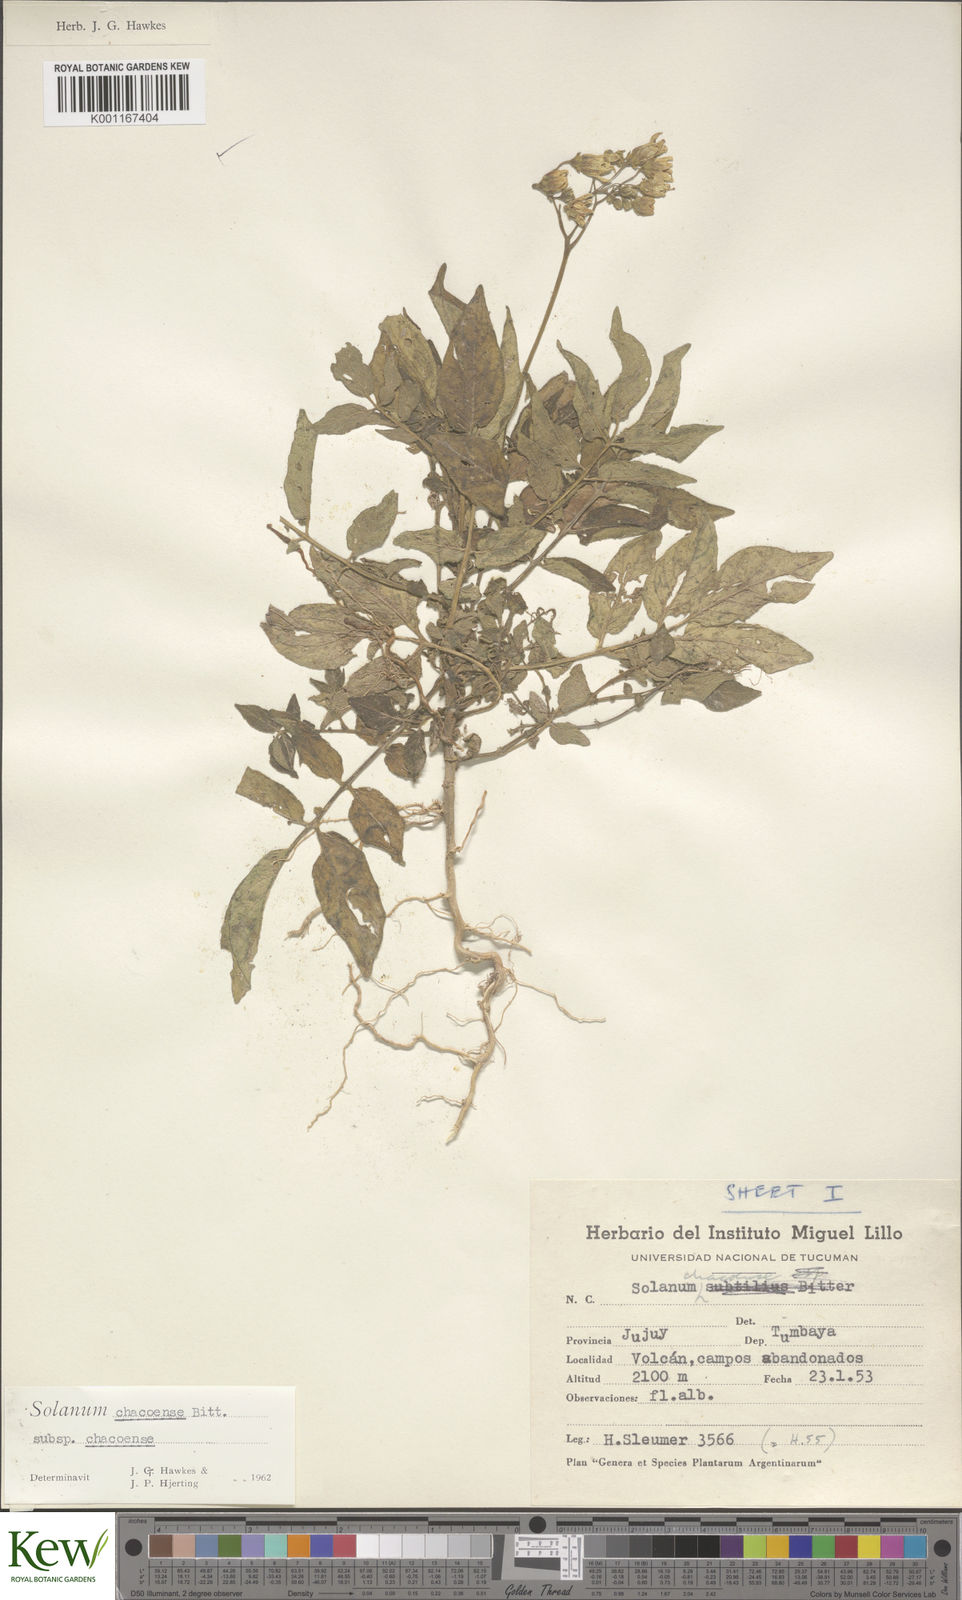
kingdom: Plantae
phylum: Tracheophyta
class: Magnoliopsida
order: Solanales
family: Solanaceae
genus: Solanum
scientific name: Solanum chacoense
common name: Chaco potato
